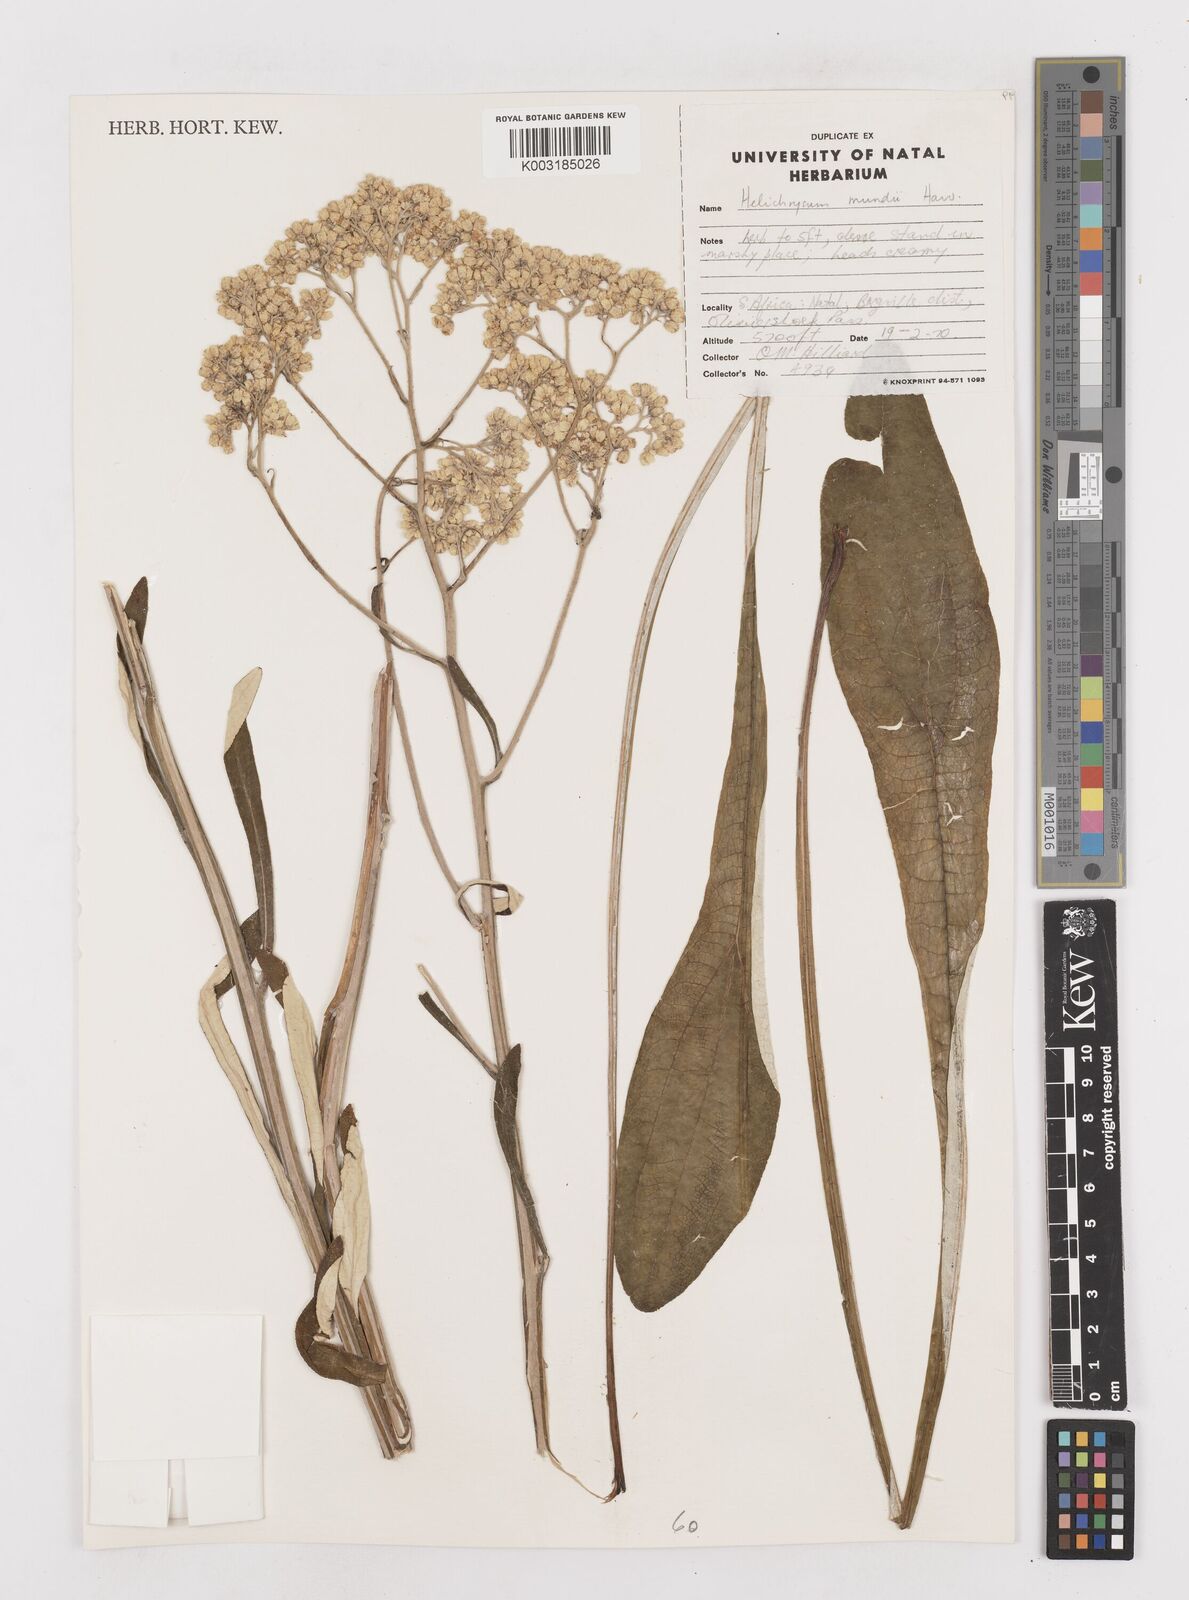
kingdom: Plantae
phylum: Tracheophyta
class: Magnoliopsida
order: Asterales
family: Asteraceae
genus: Helichrysum
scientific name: Helichrysum mundii
